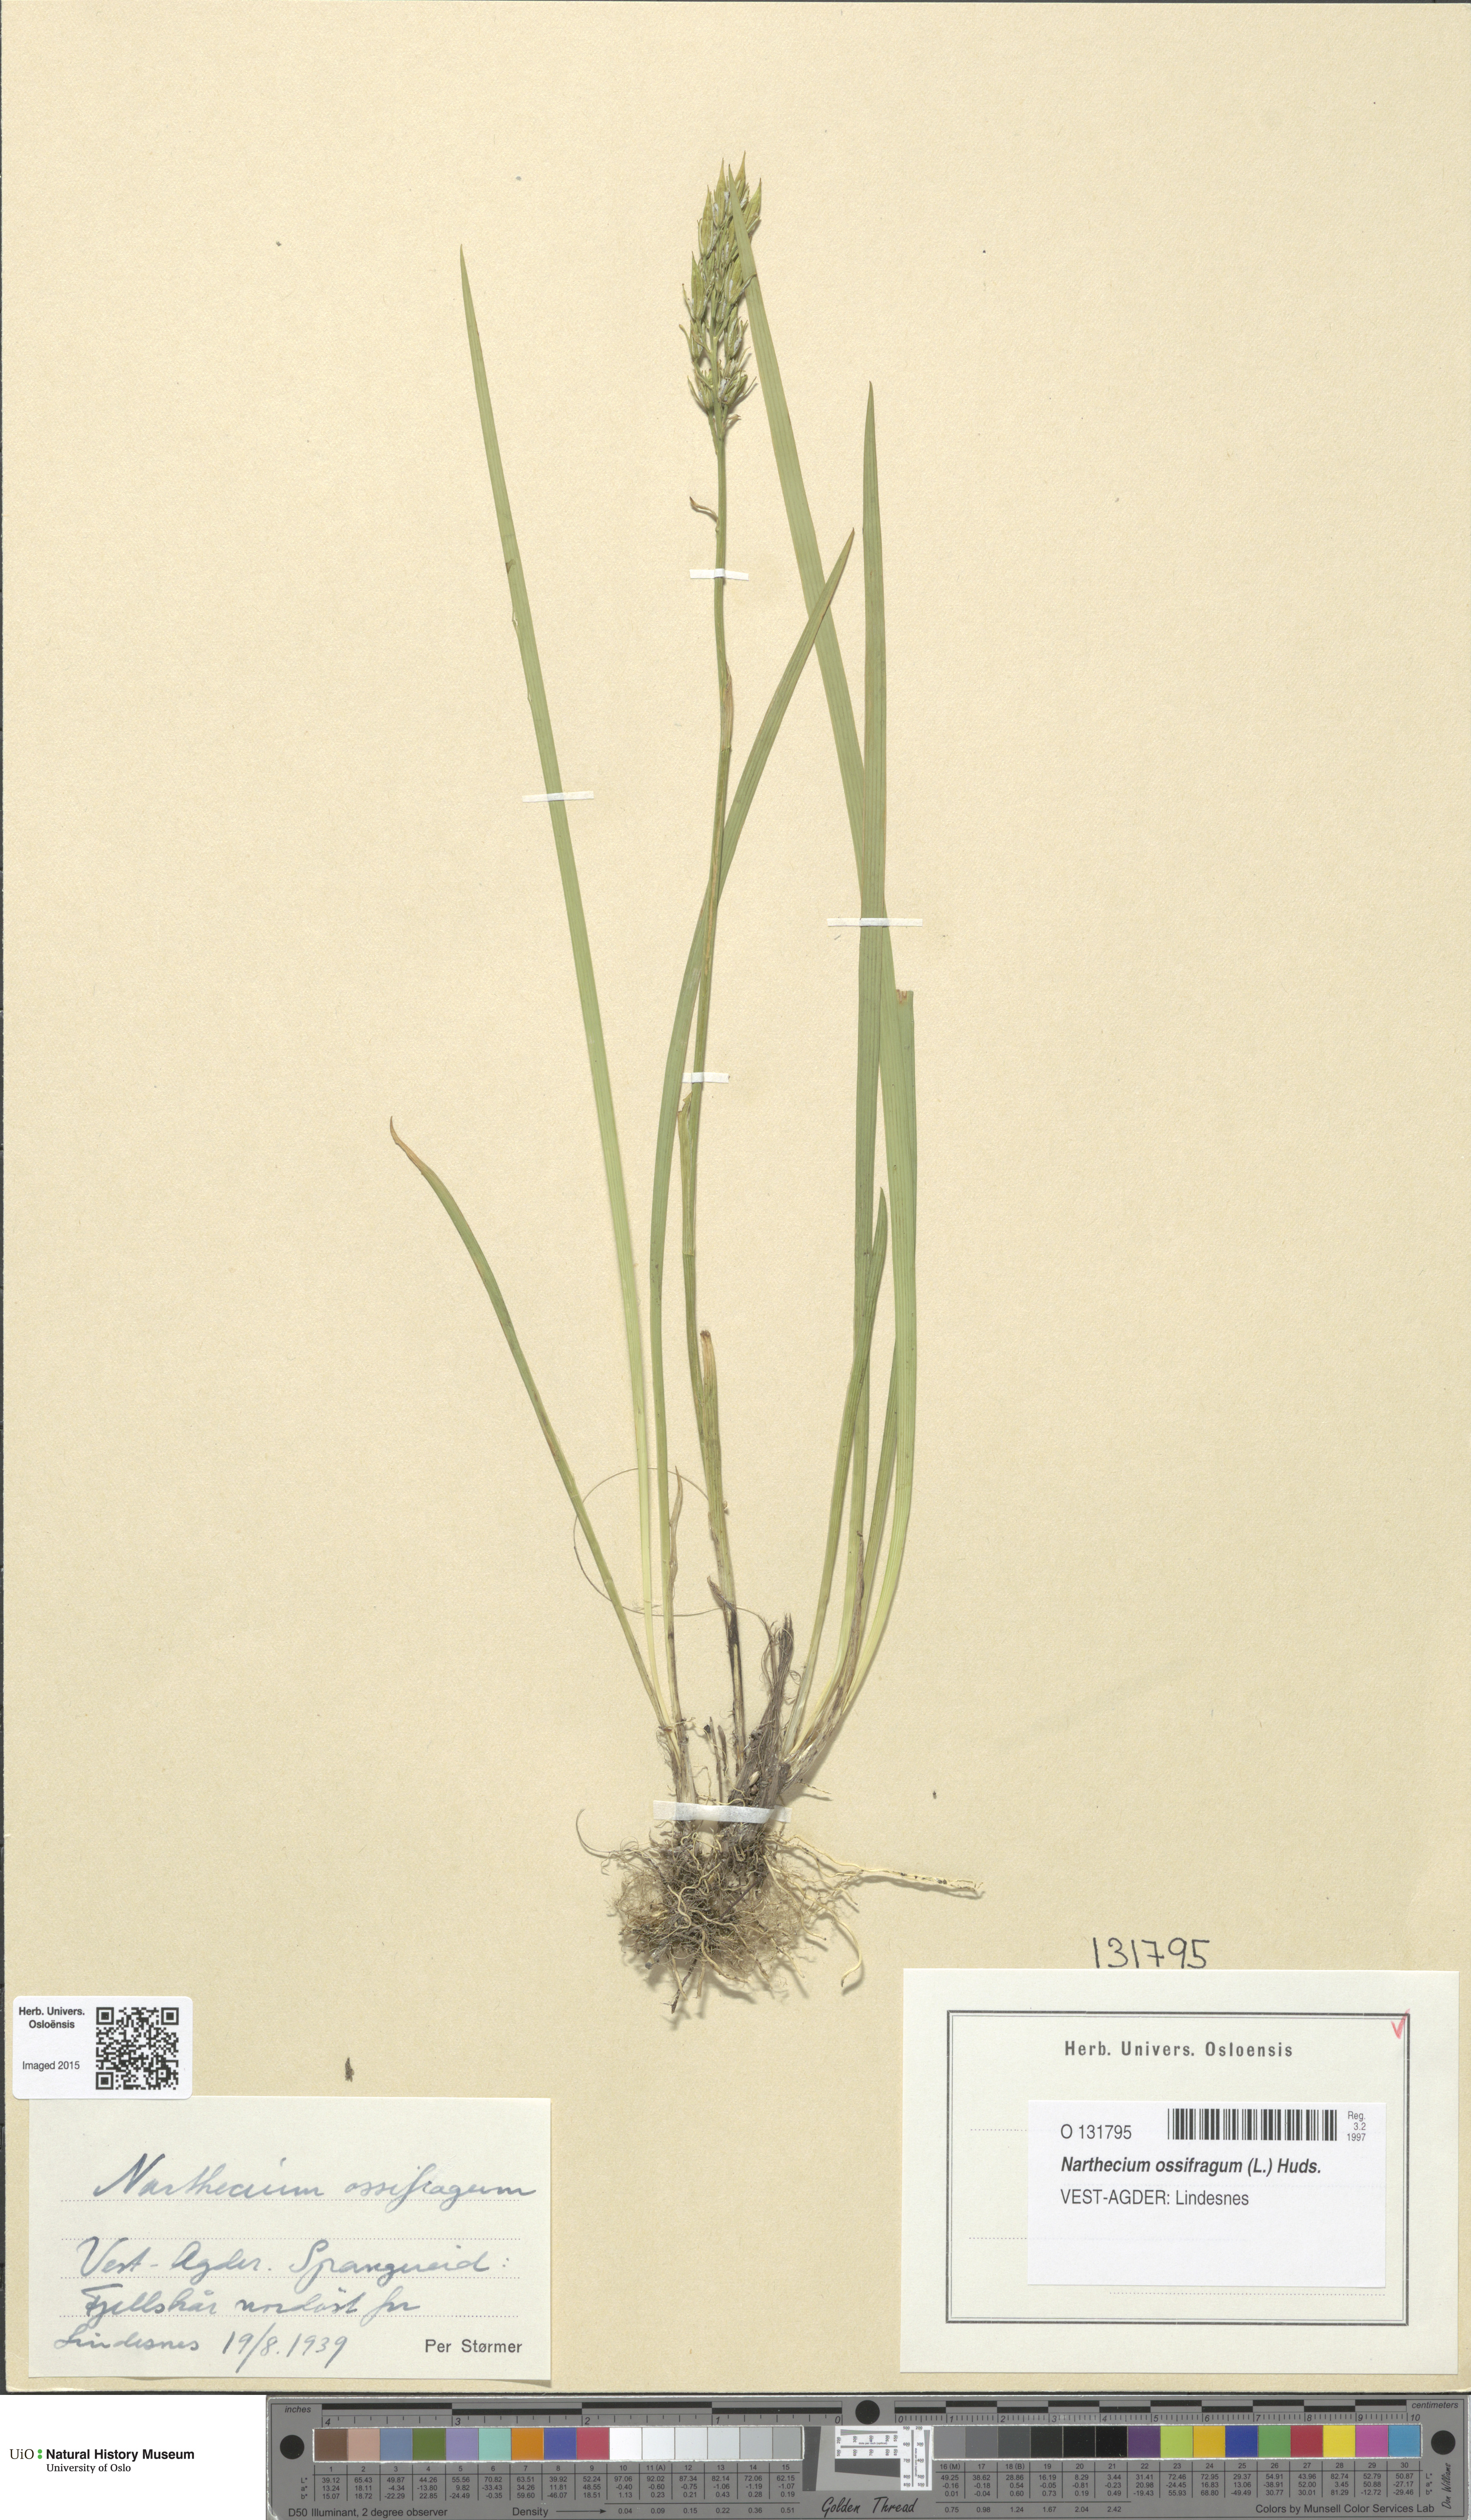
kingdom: Plantae
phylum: Tracheophyta
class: Liliopsida
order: Dioscoreales
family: Nartheciaceae
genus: Narthecium
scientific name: Narthecium ossifragum
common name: Bog asphodel
